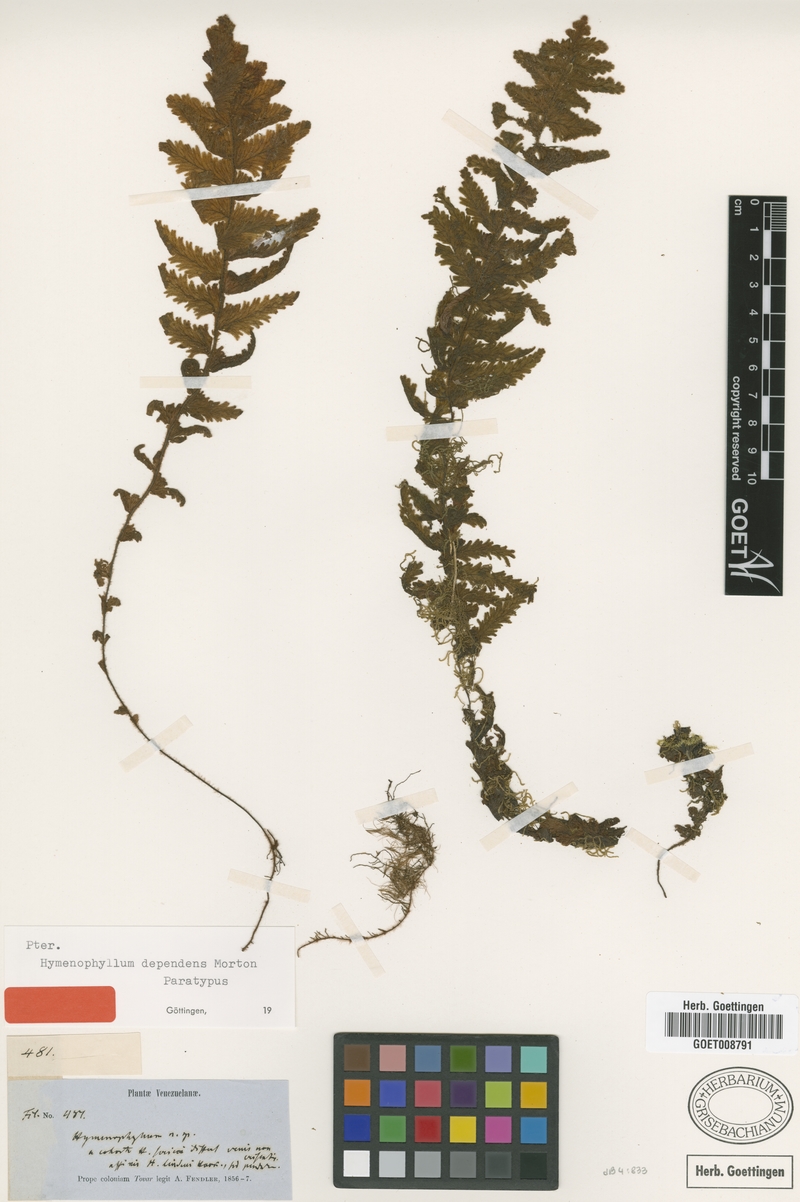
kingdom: Plantae
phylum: Tracheophyta
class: Polypodiopsida
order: Hymenophyllales
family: Hymenophyllaceae
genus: Hymenophyllum
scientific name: Hymenophyllum dependens
